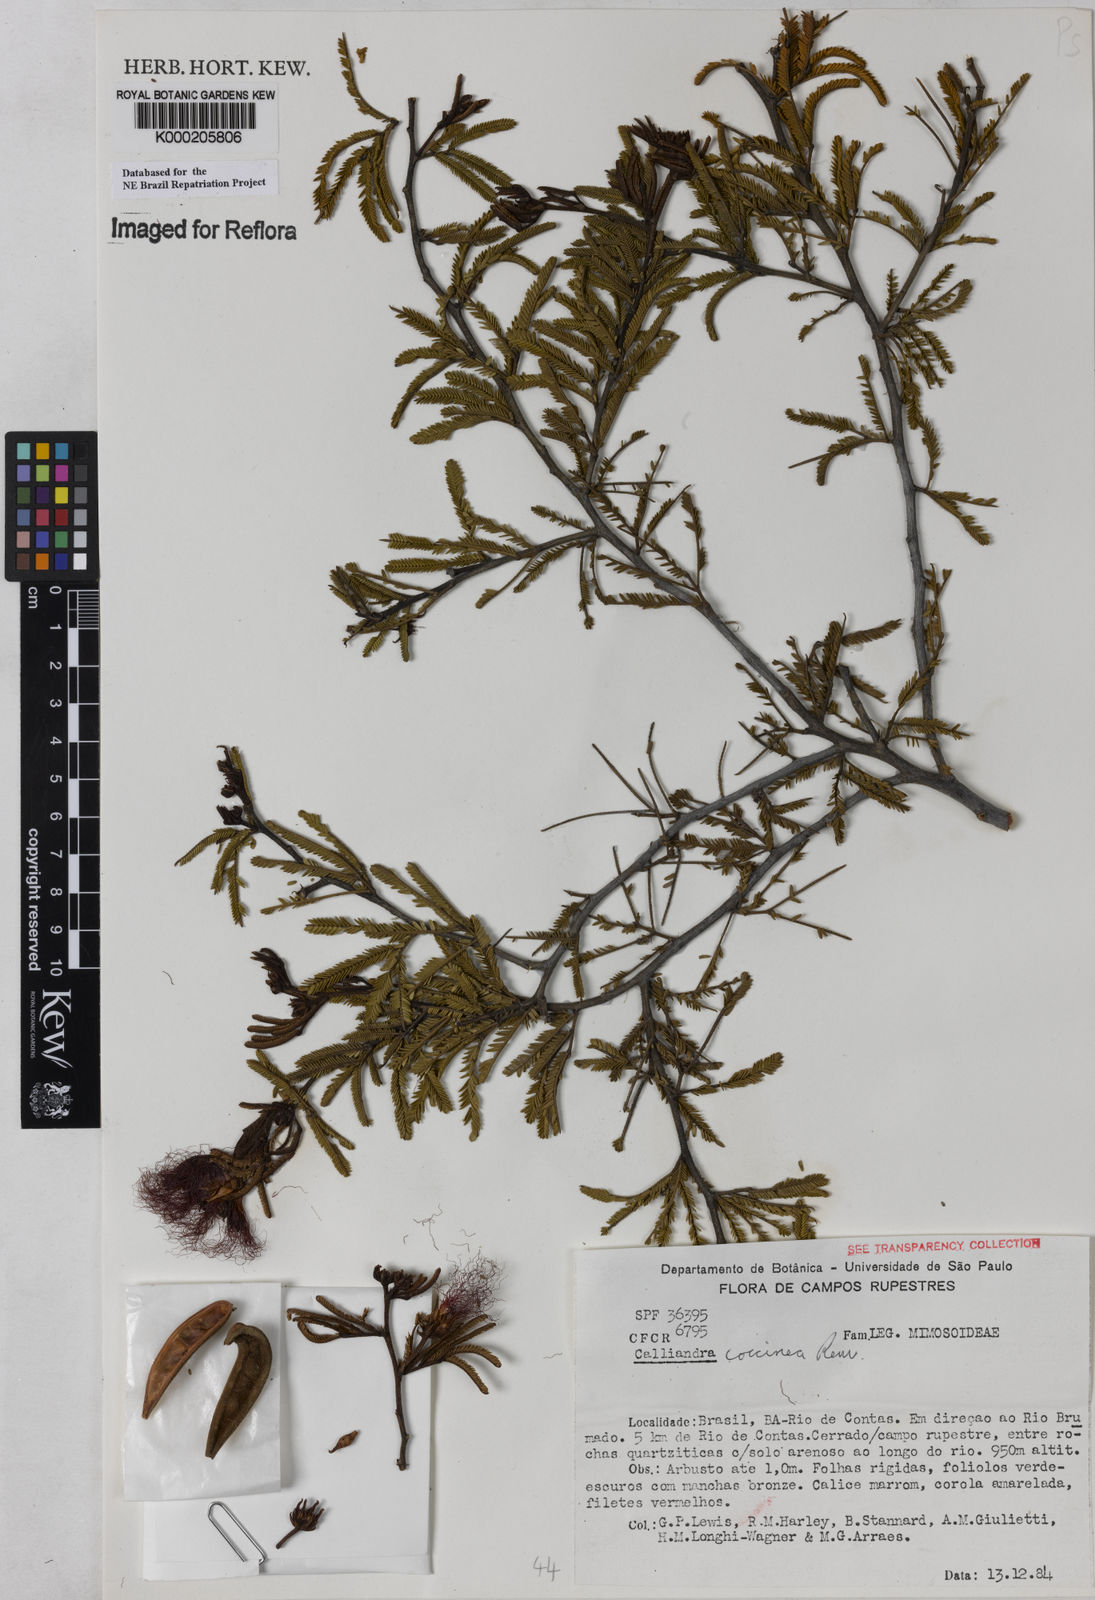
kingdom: Plantae
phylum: Tracheophyta
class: Magnoliopsida
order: Fabales
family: Fabaceae
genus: Calliandra
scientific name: Calliandra coccinea
